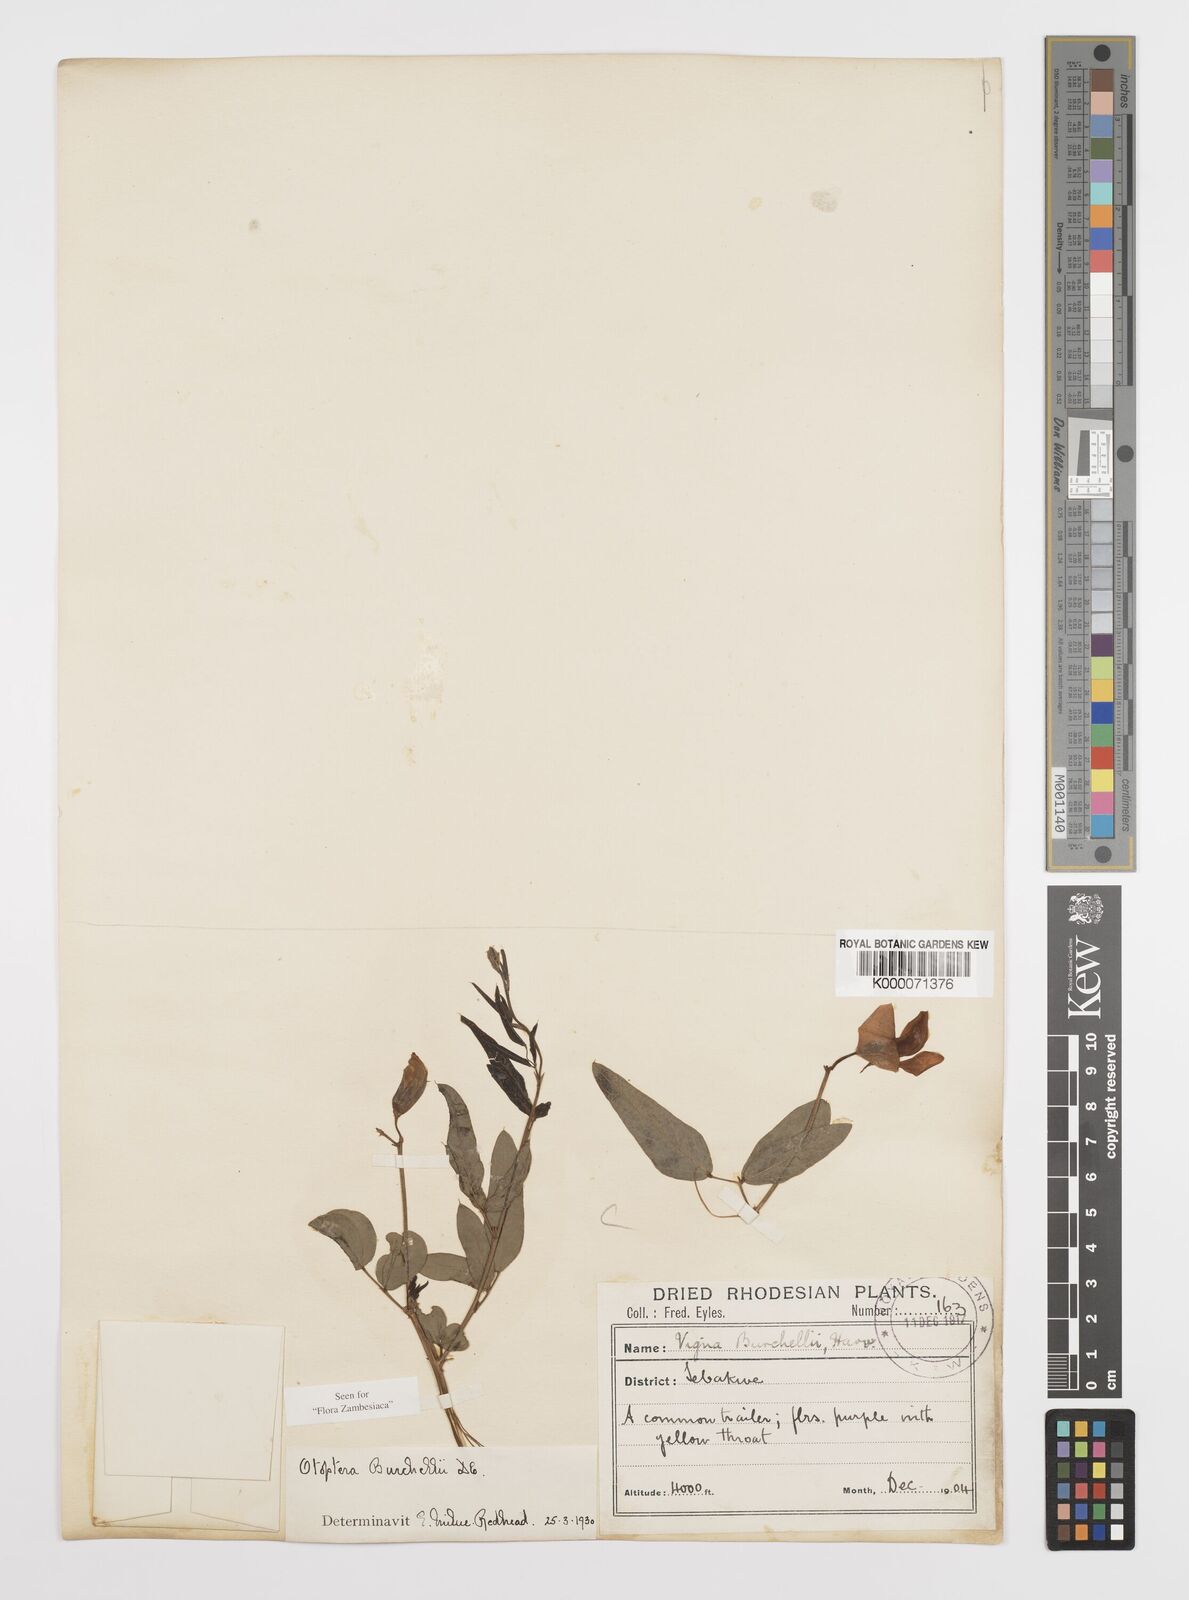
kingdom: Plantae
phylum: Tracheophyta
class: Magnoliopsida
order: Fabales
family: Fabaceae
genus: Otoptera
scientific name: Otoptera burchellii
